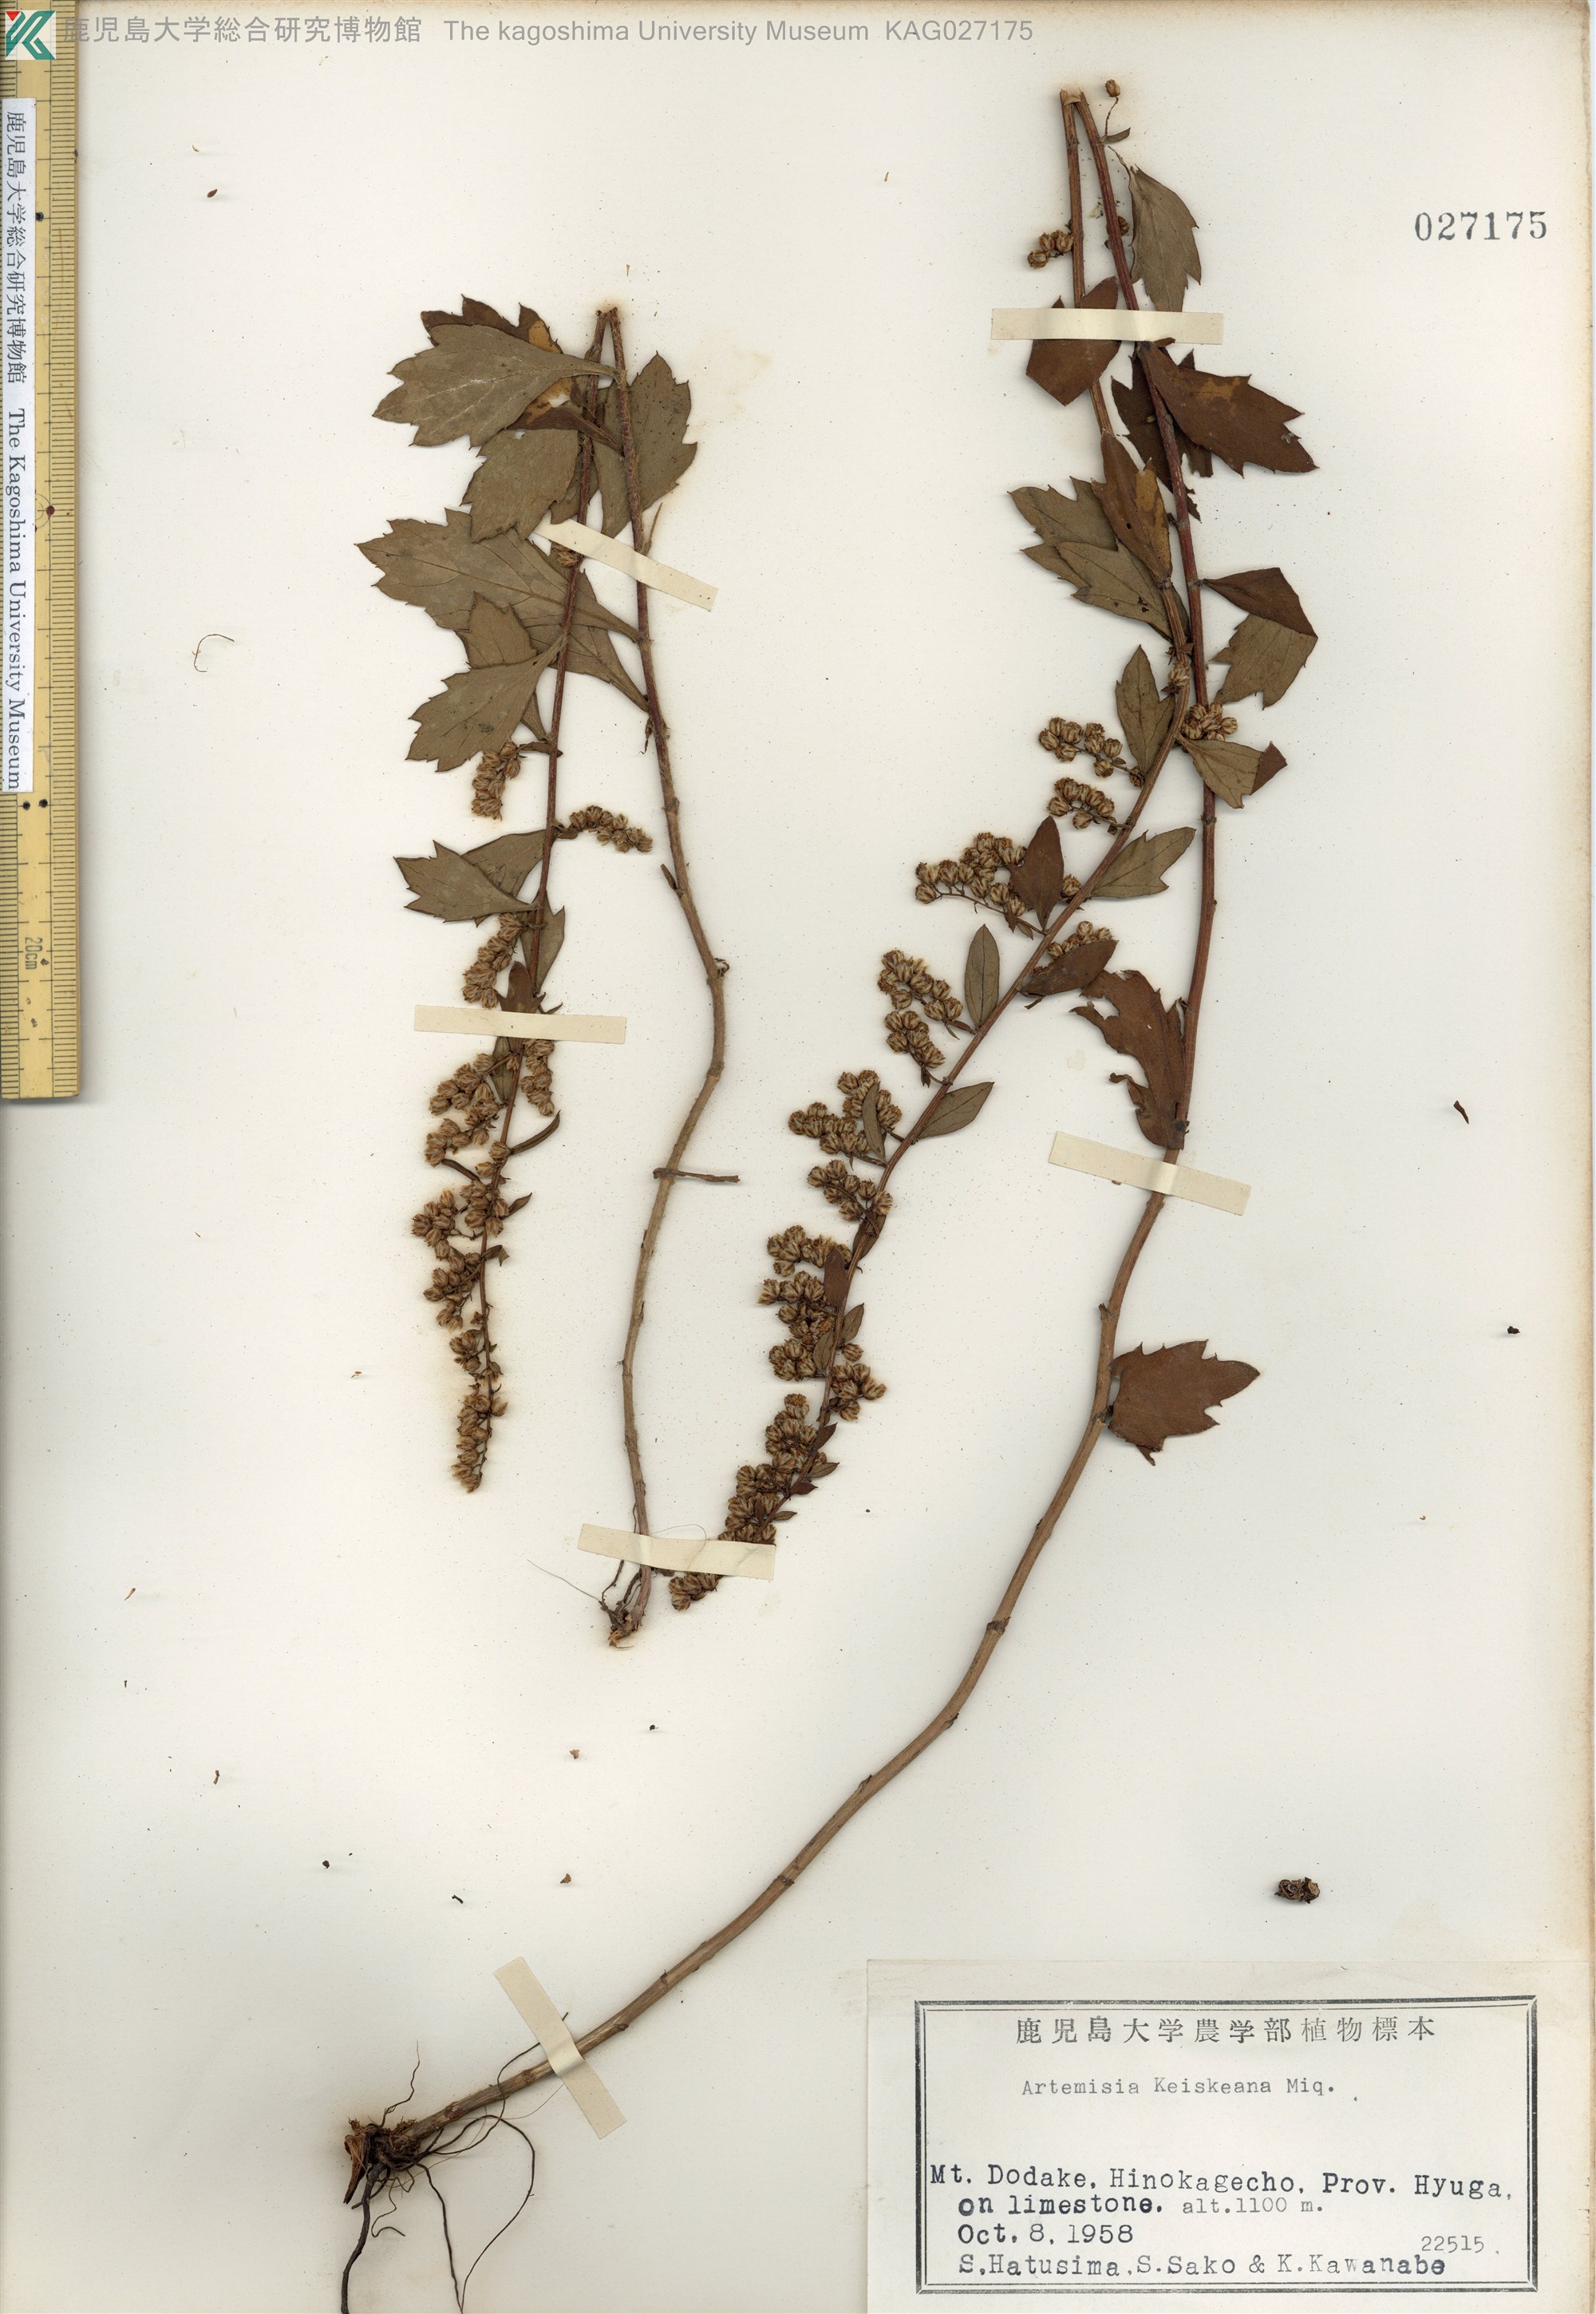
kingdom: Plantae
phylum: Tracheophyta
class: Magnoliopsida
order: Asterales
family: Asteraceae
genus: Artemisia
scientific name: Artemisia keiskeana
